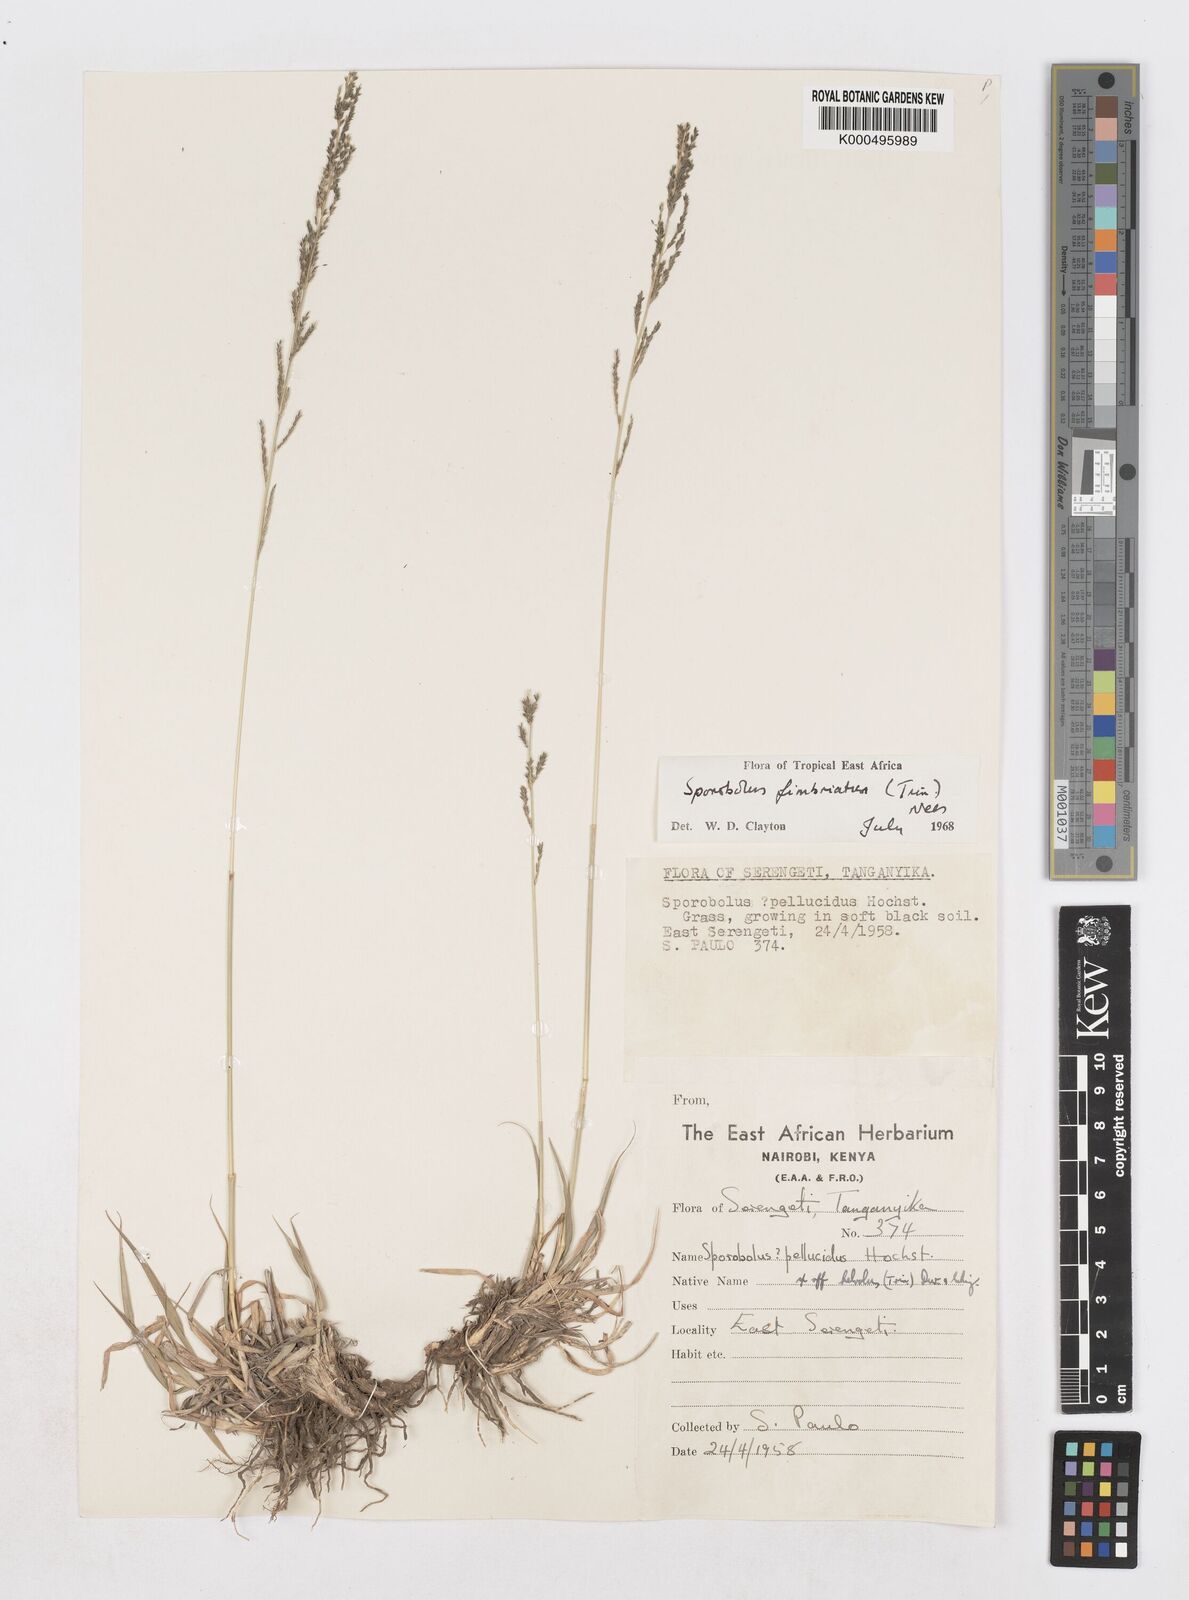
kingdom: Plantae
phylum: Tracheophyta
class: Liliopsida
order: Poales
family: Poaceae
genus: Sporobolus
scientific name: Sporobolus fimbriatus
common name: Fringed dropseed
